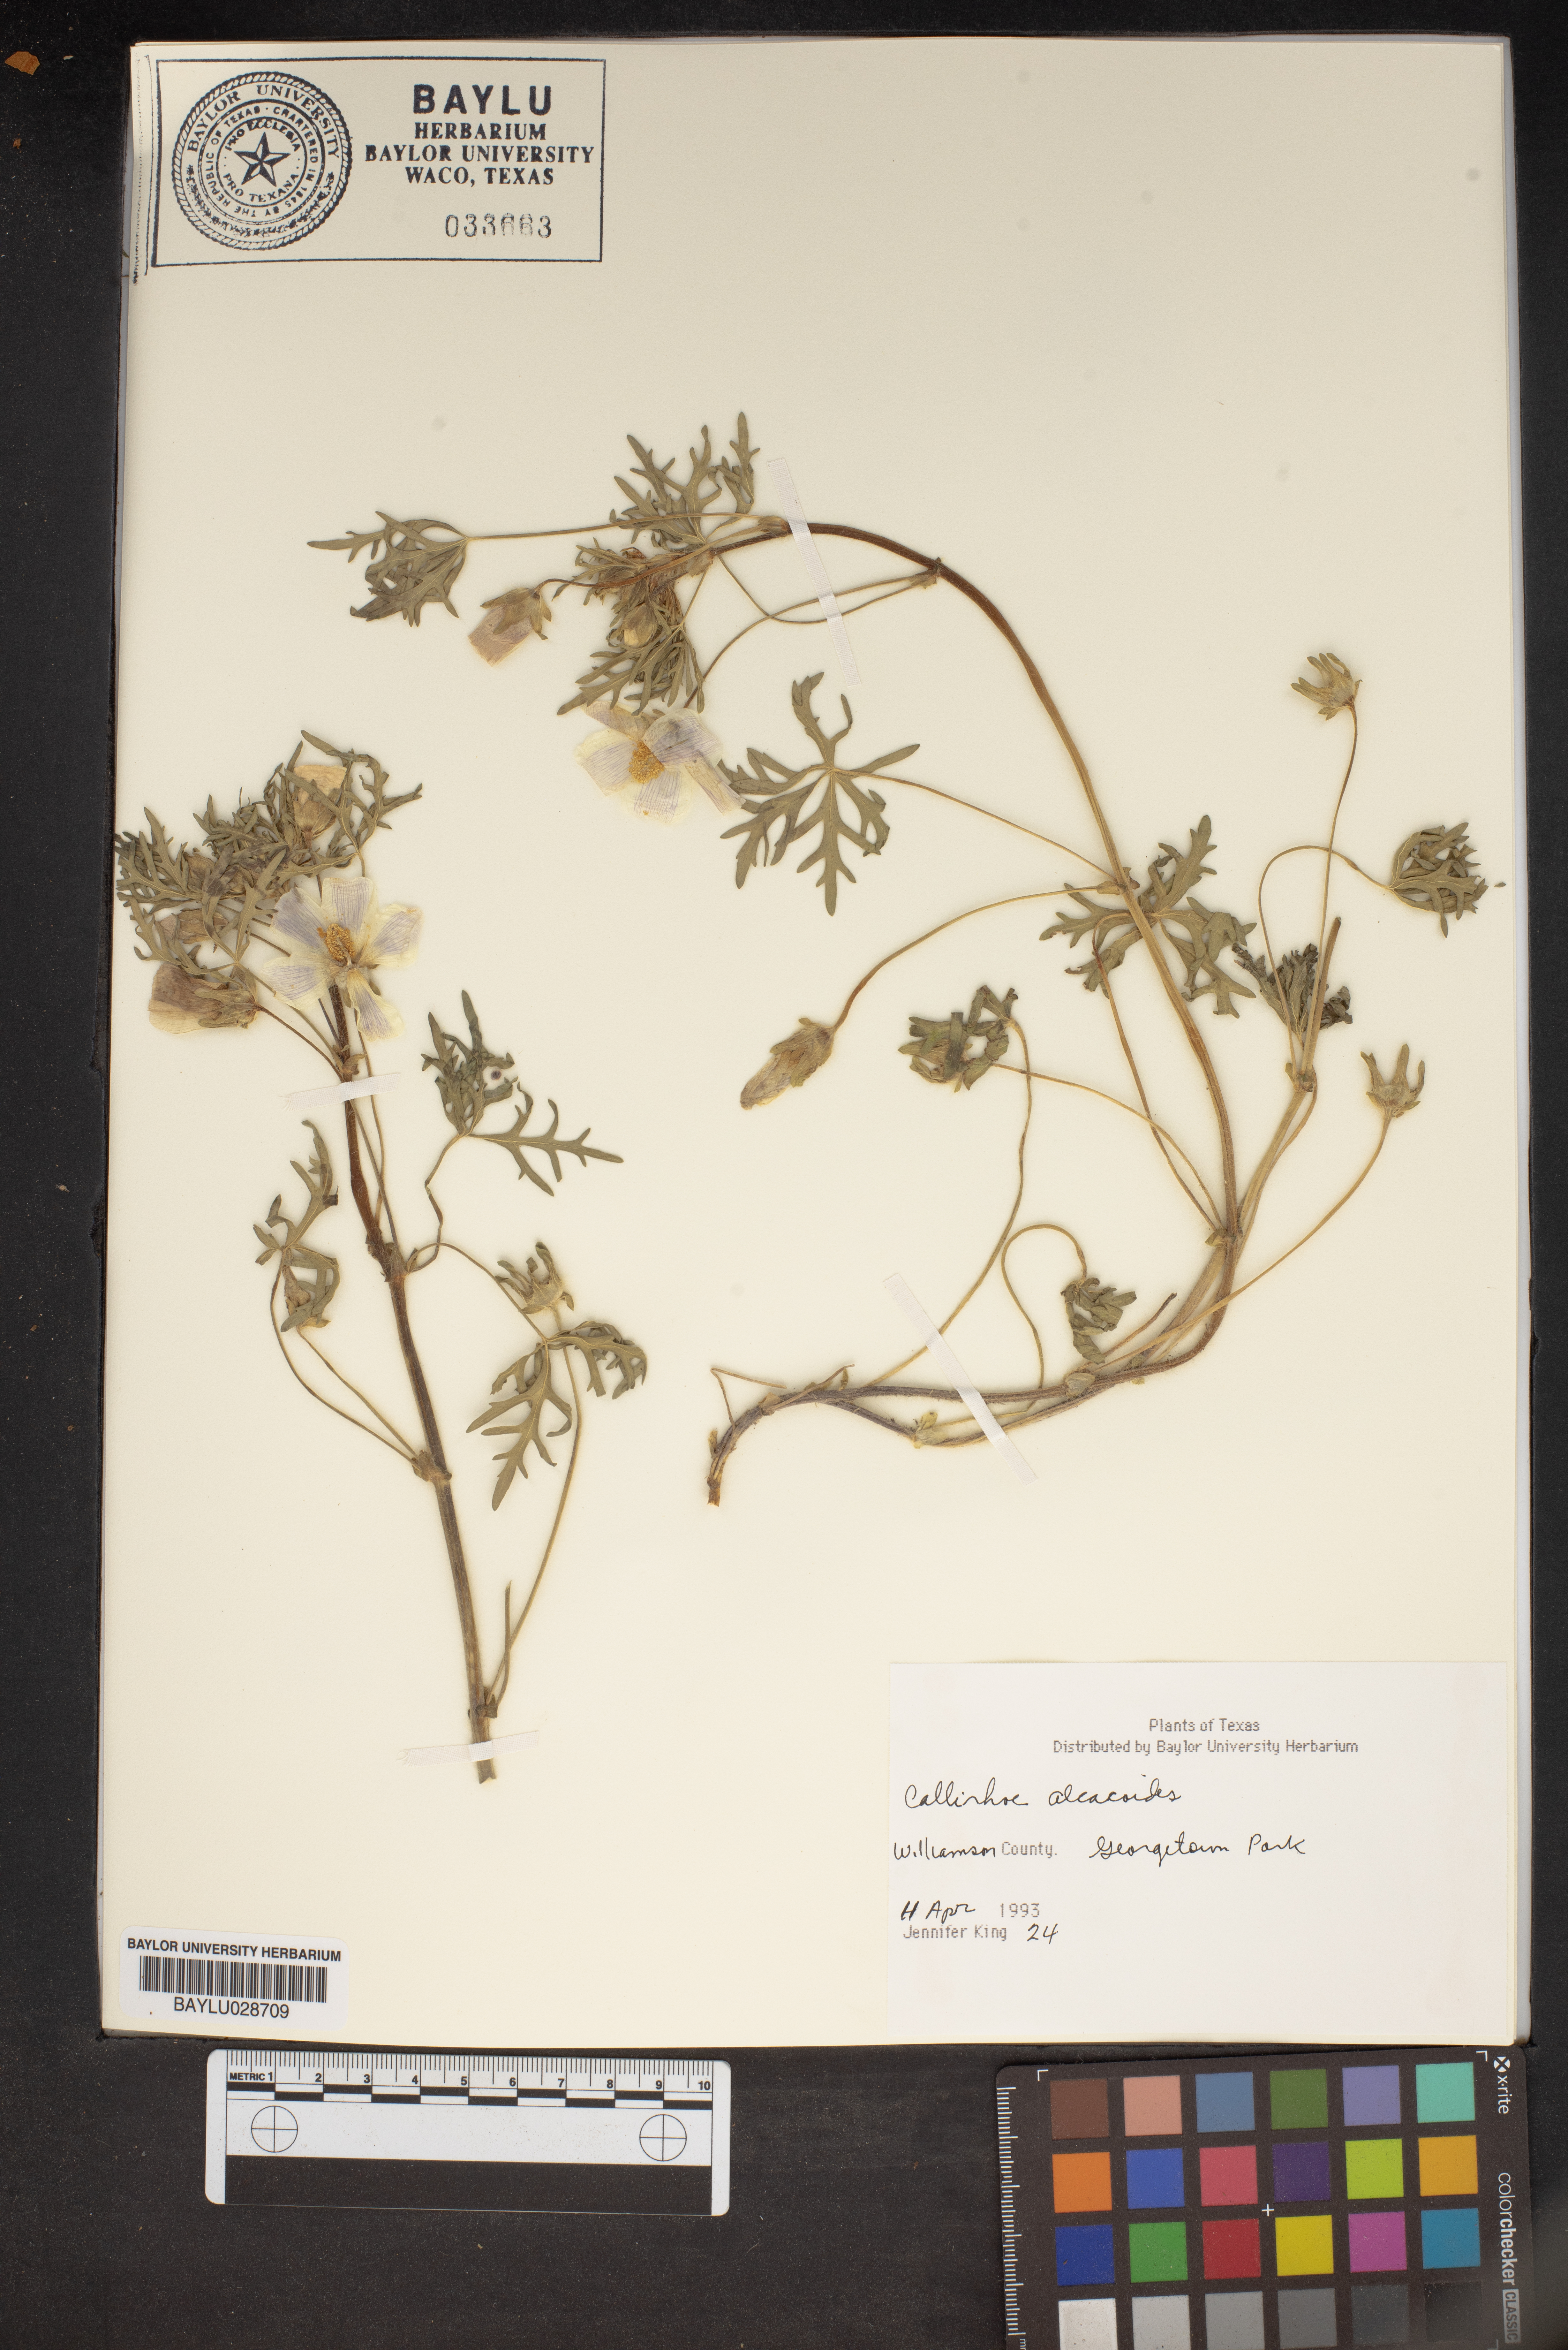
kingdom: Plantae
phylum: Tracheophyta
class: Magnoliopsida
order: Malvales
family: Malvaceae
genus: Callirhoe
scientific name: Callirhoe alcaeoides
